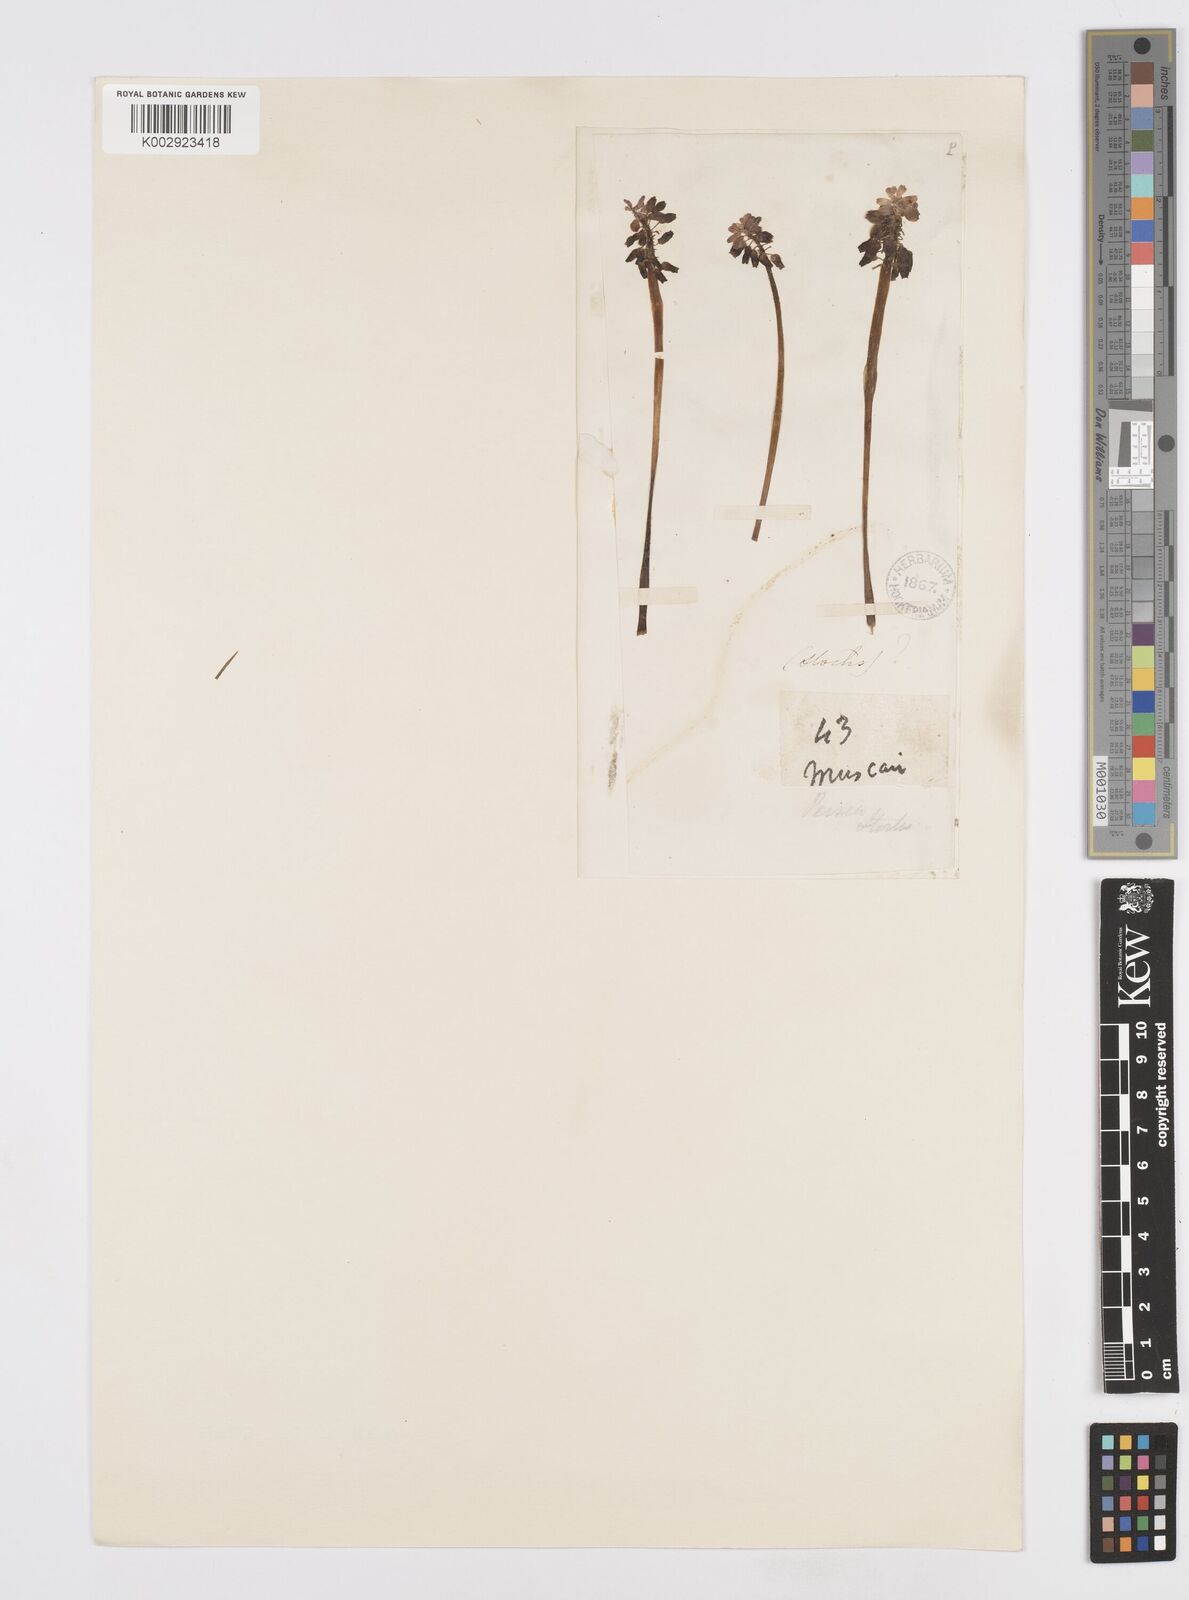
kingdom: Plantae
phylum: Tracheophyta
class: Liliopsida
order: Asparagales
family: Asparagaceae
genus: Muscari
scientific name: Muscari neglectum
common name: Grape-hyacinth
